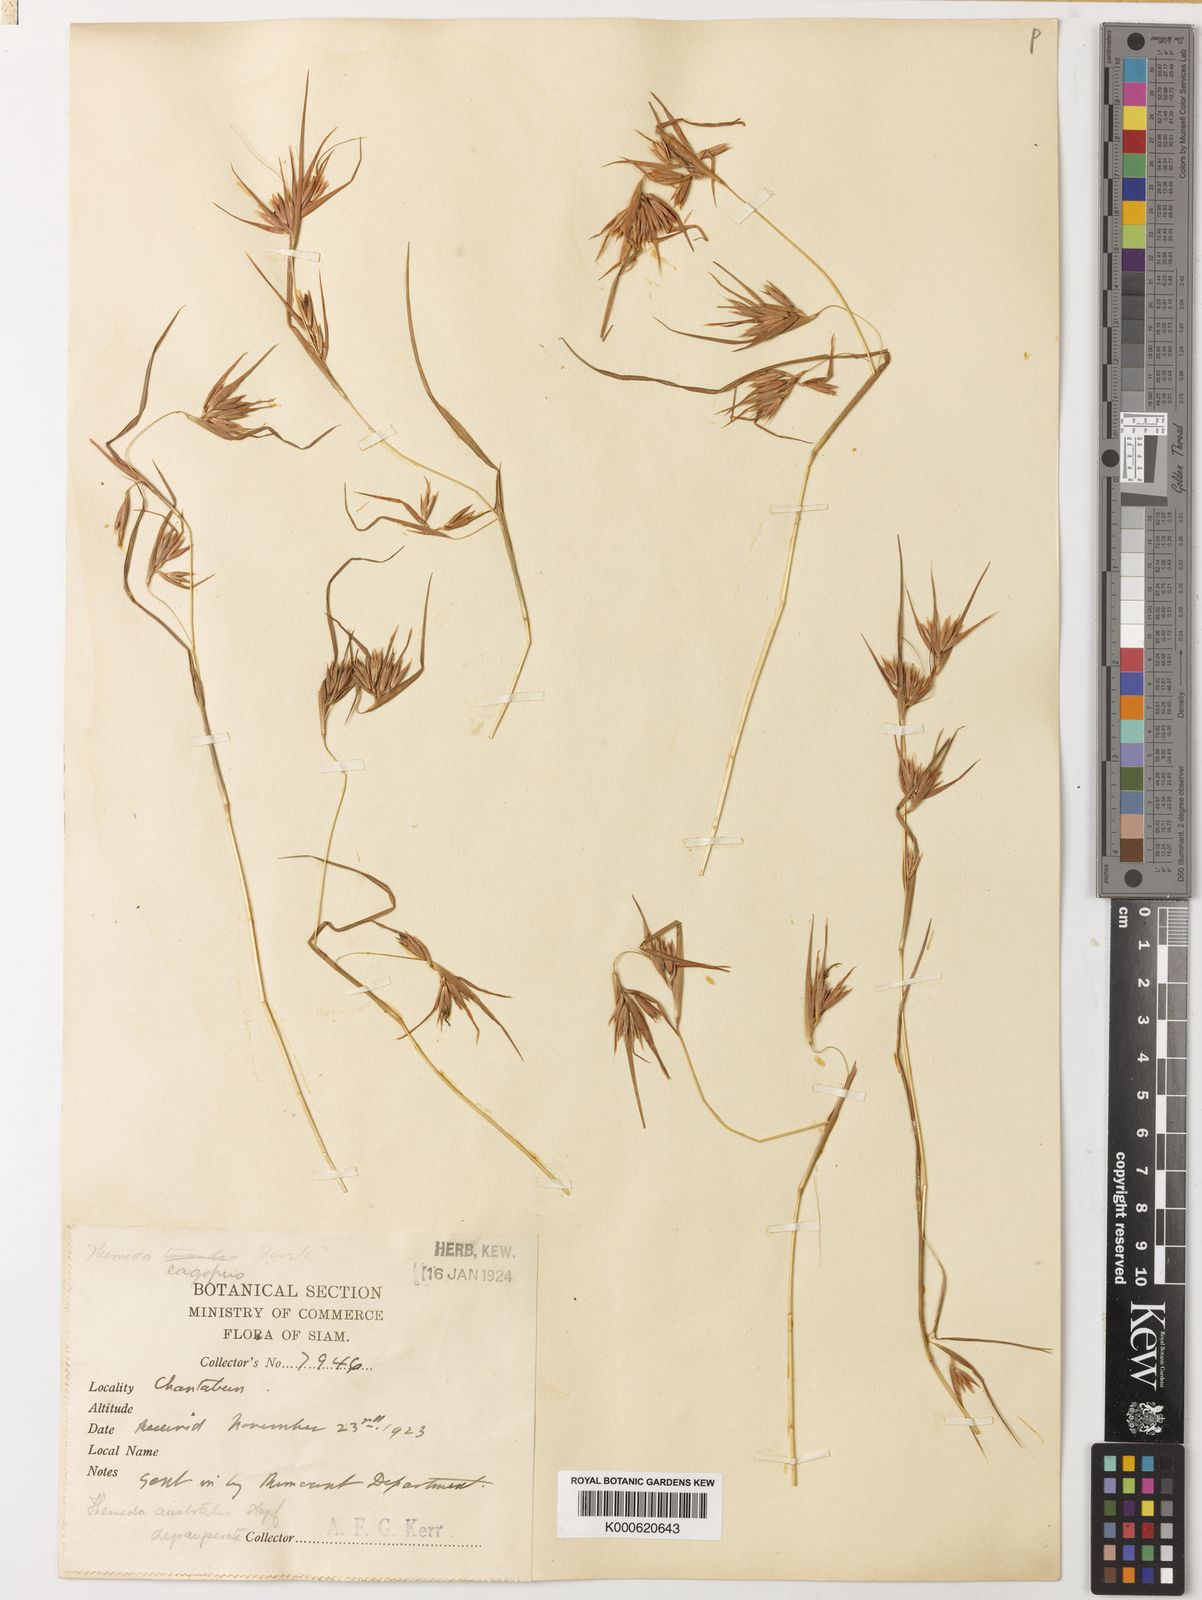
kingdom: Plantae
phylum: Tracheophyta
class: Liliopsida
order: Poales
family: Poaceae
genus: Themeda
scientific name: Themeda triandra
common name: Kangaroo grass
